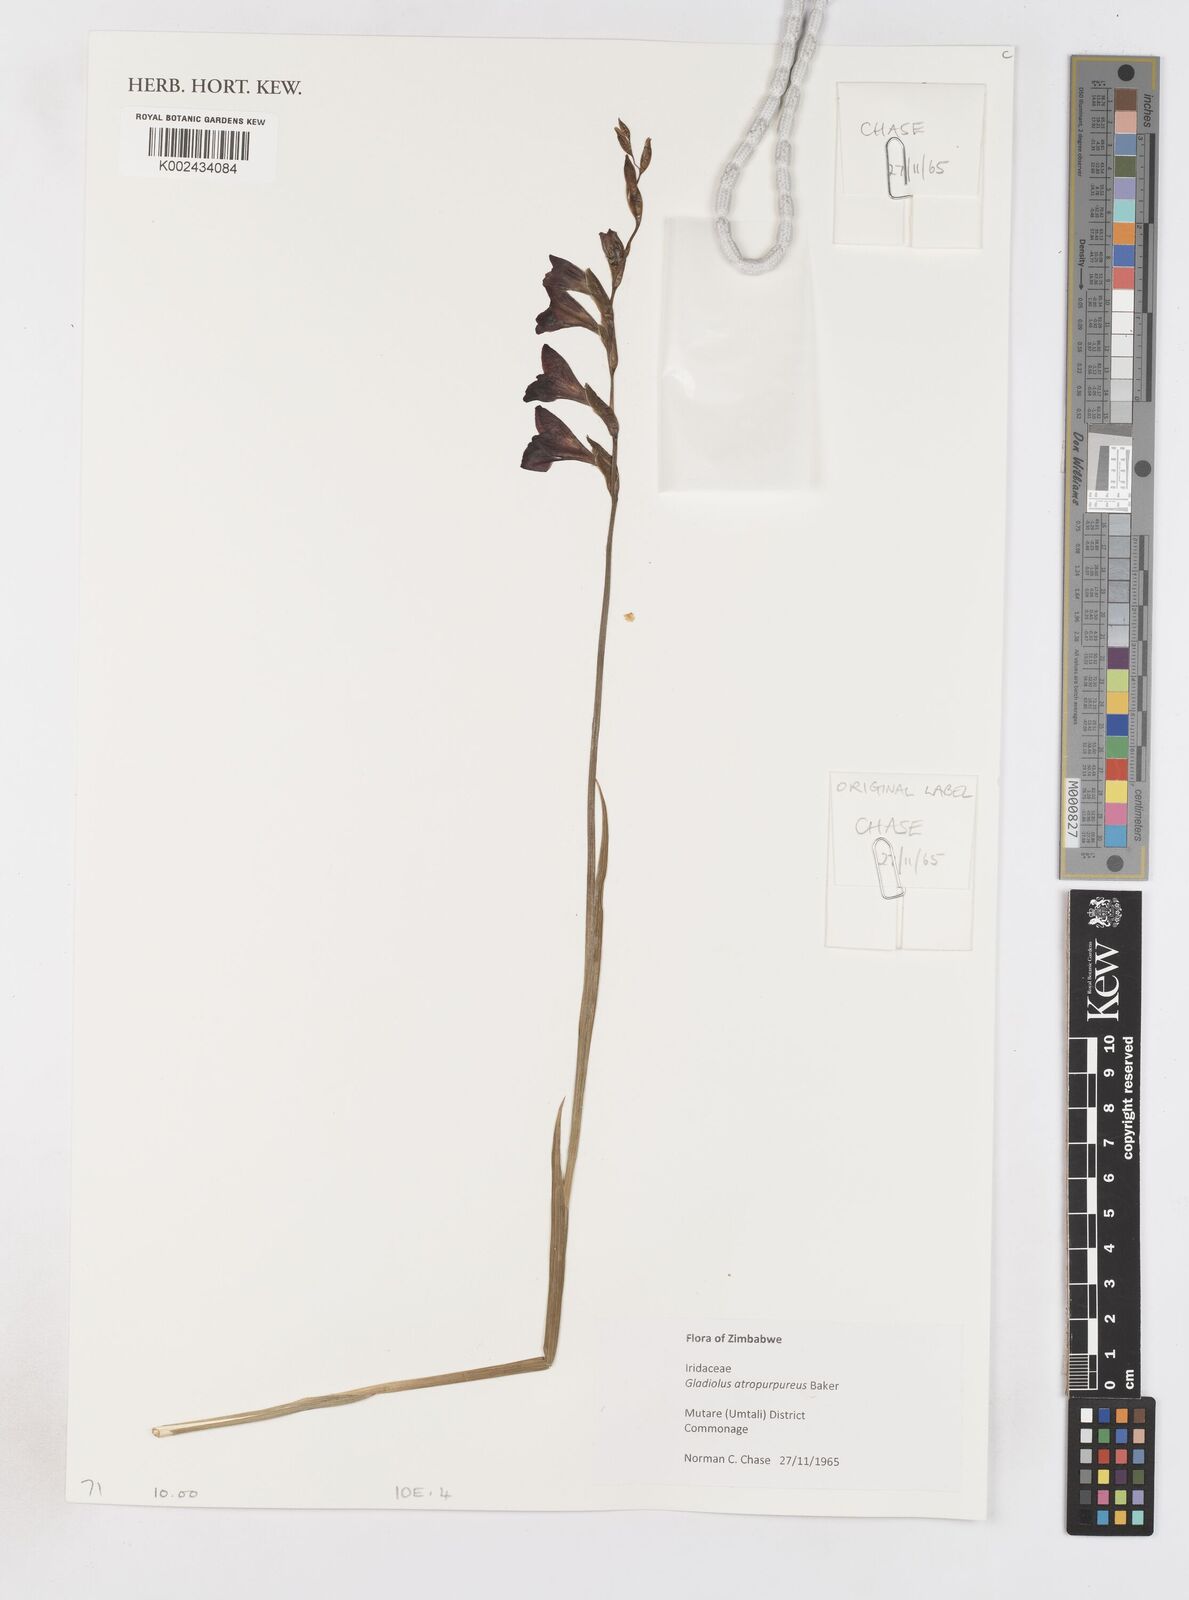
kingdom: Plantae
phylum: Tracheophyta
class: Liliopsida
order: Asparagales
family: Iridaceae
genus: Gladiolus
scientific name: Gladiolus atropurpureus
